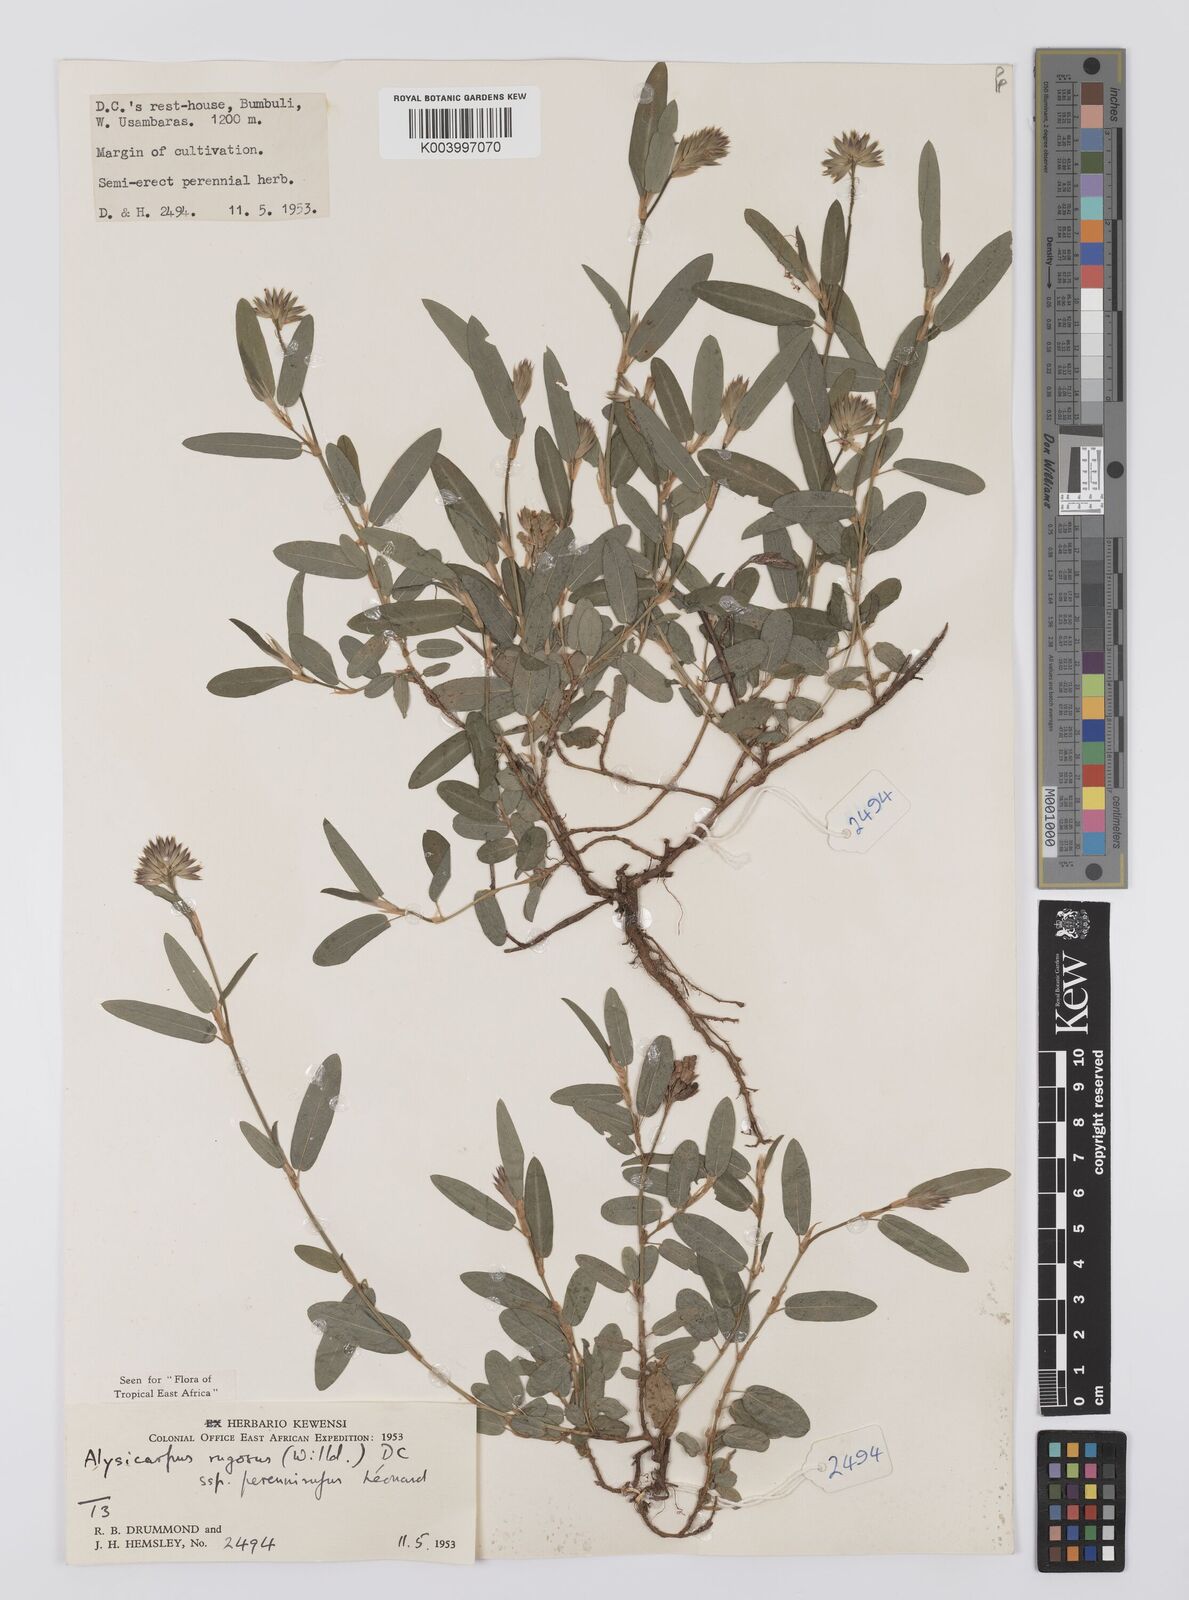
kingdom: Plantae
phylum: Tracheophyta
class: Magnoliopsida
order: Fabales
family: Fabaceae
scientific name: Fabaceae
